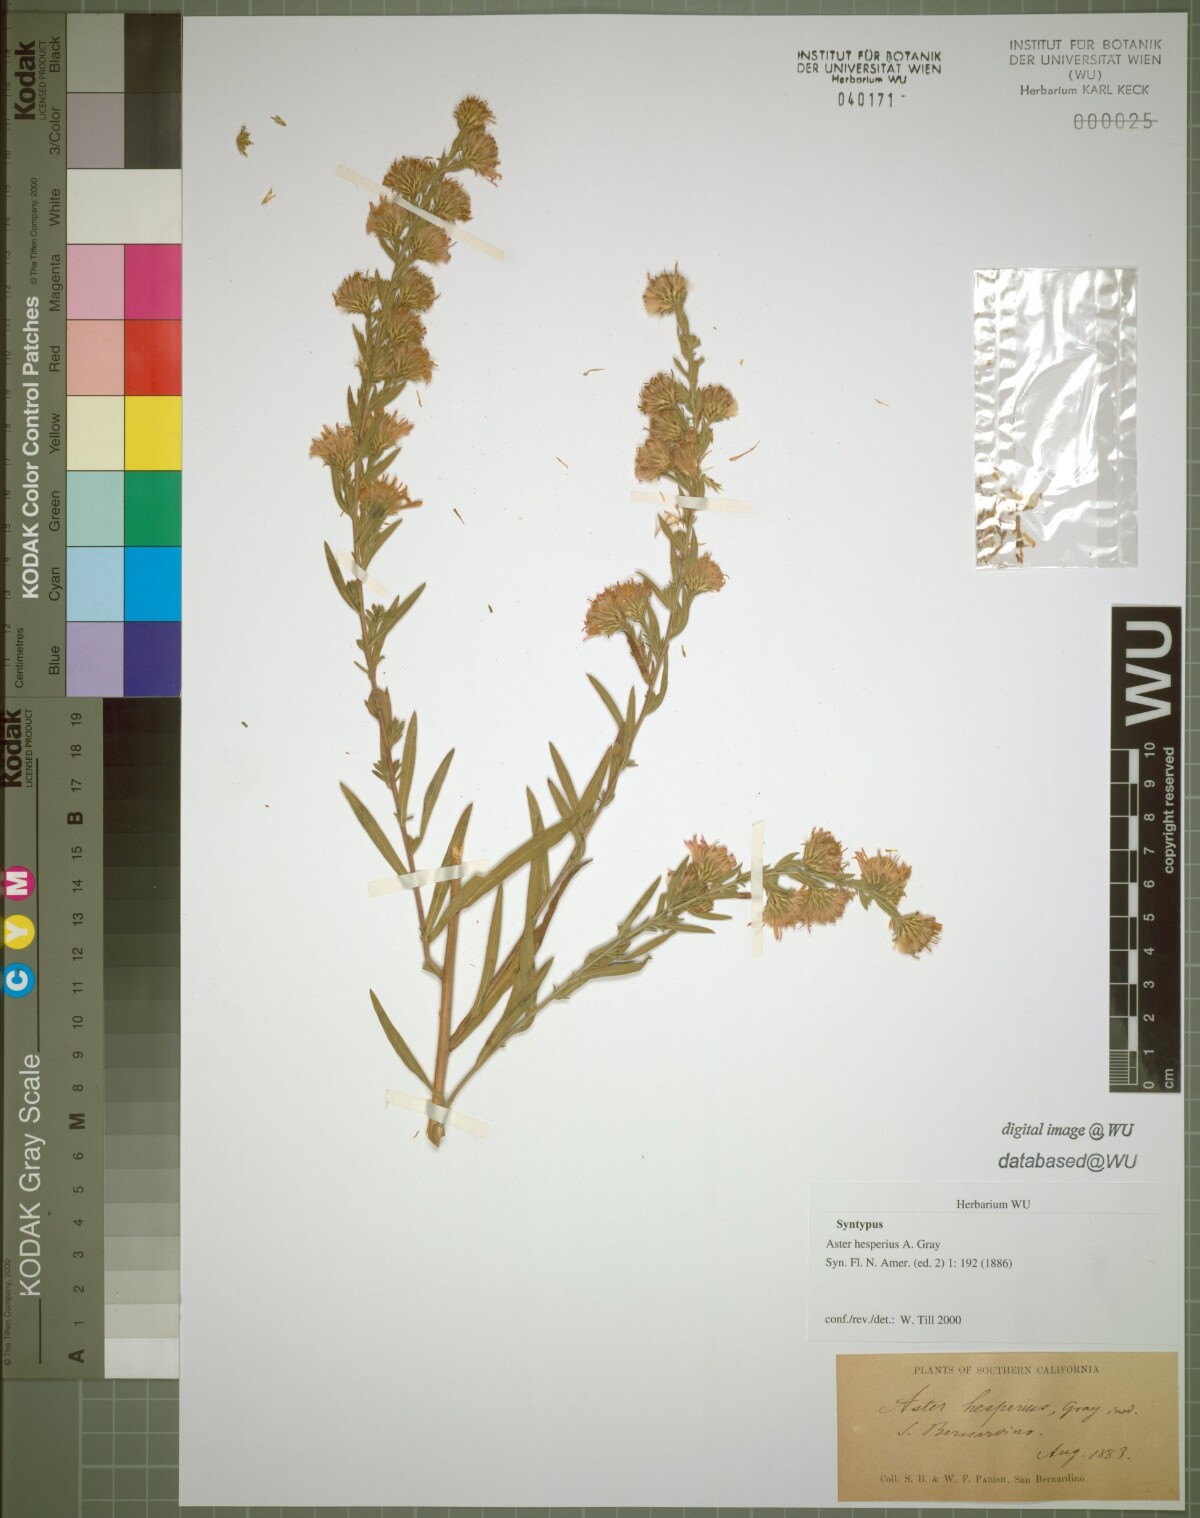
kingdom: Plantae
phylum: Tracheophyta
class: Magnoliopsida
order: Asterales
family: Asteraceae
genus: Symphyotrichum
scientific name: Symphyotrichum lanceolatum
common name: Panicled aster
